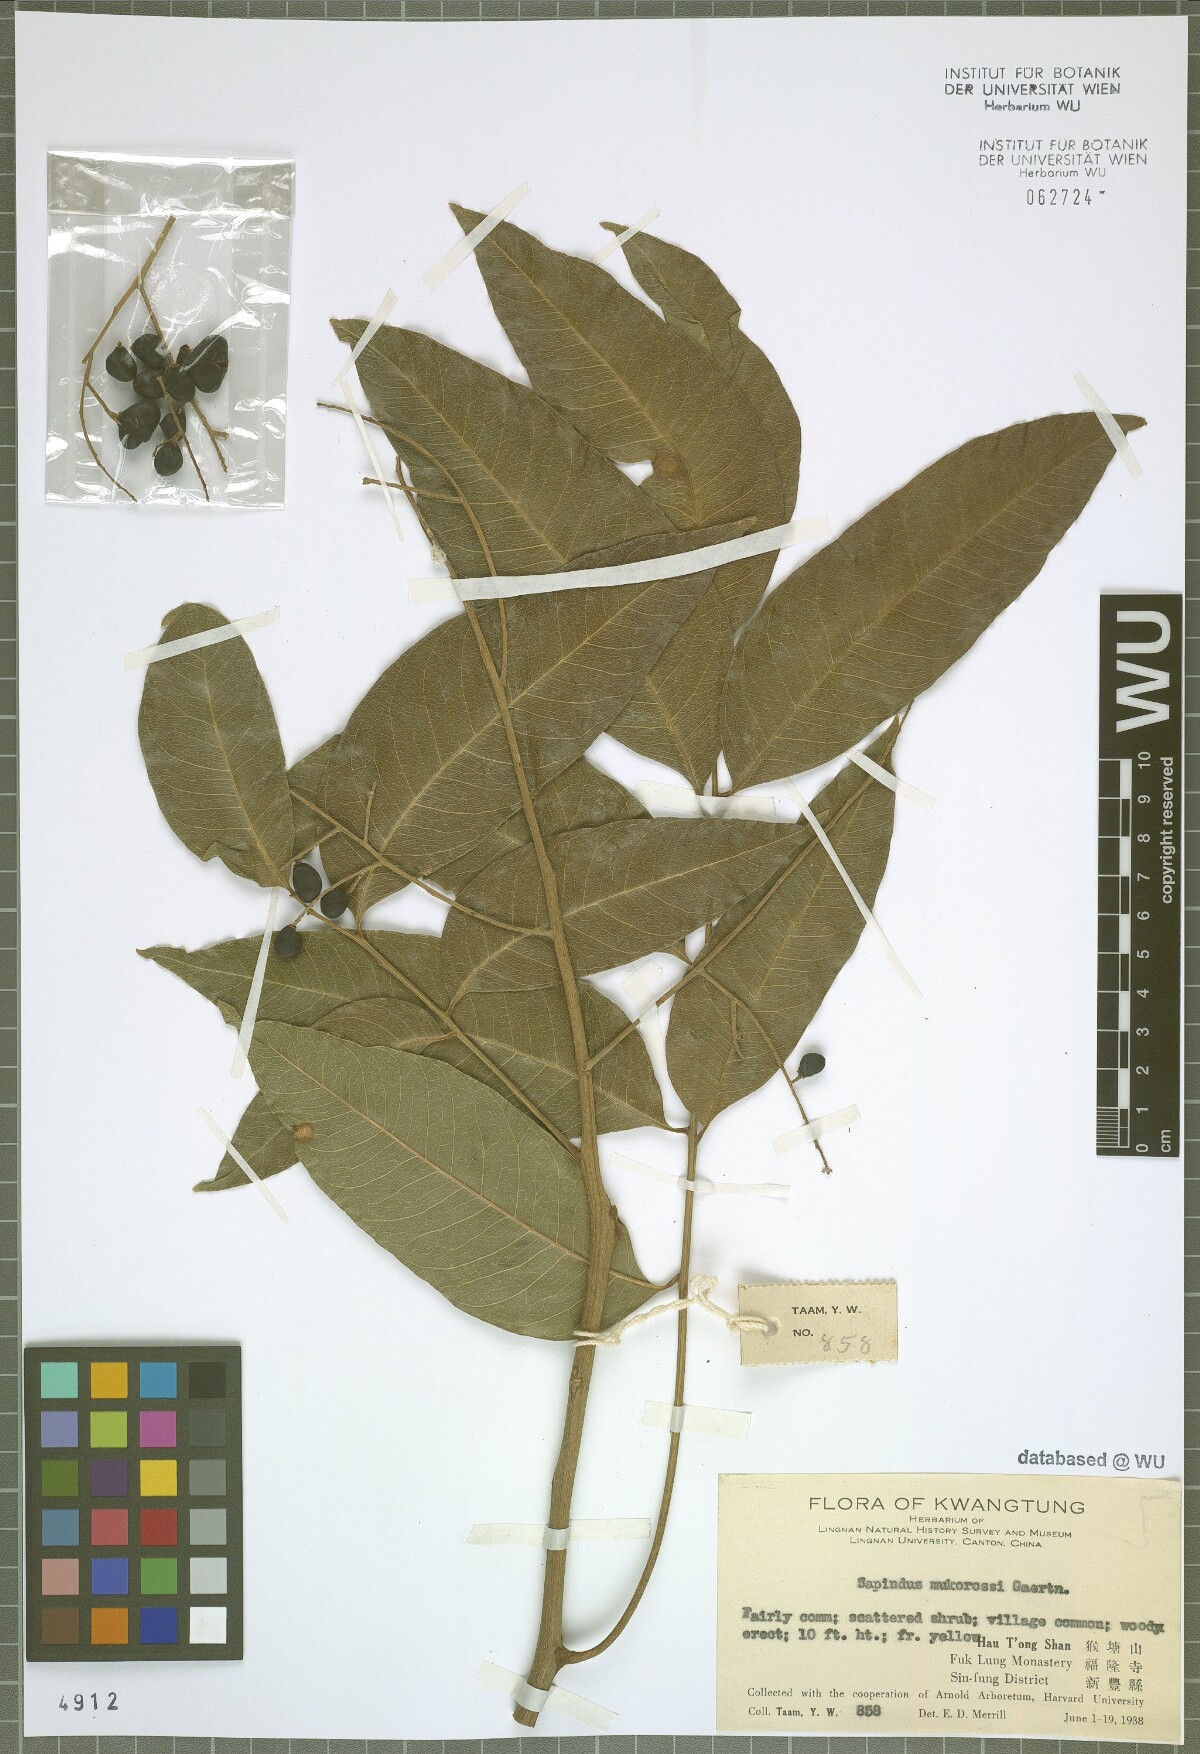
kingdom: Plantae
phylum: Tracheophyta
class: Magnoliopsida
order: Sapindales
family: Sapindaceae
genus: Sapindus
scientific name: Sapindus mukorossi
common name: Chinese soapberry
